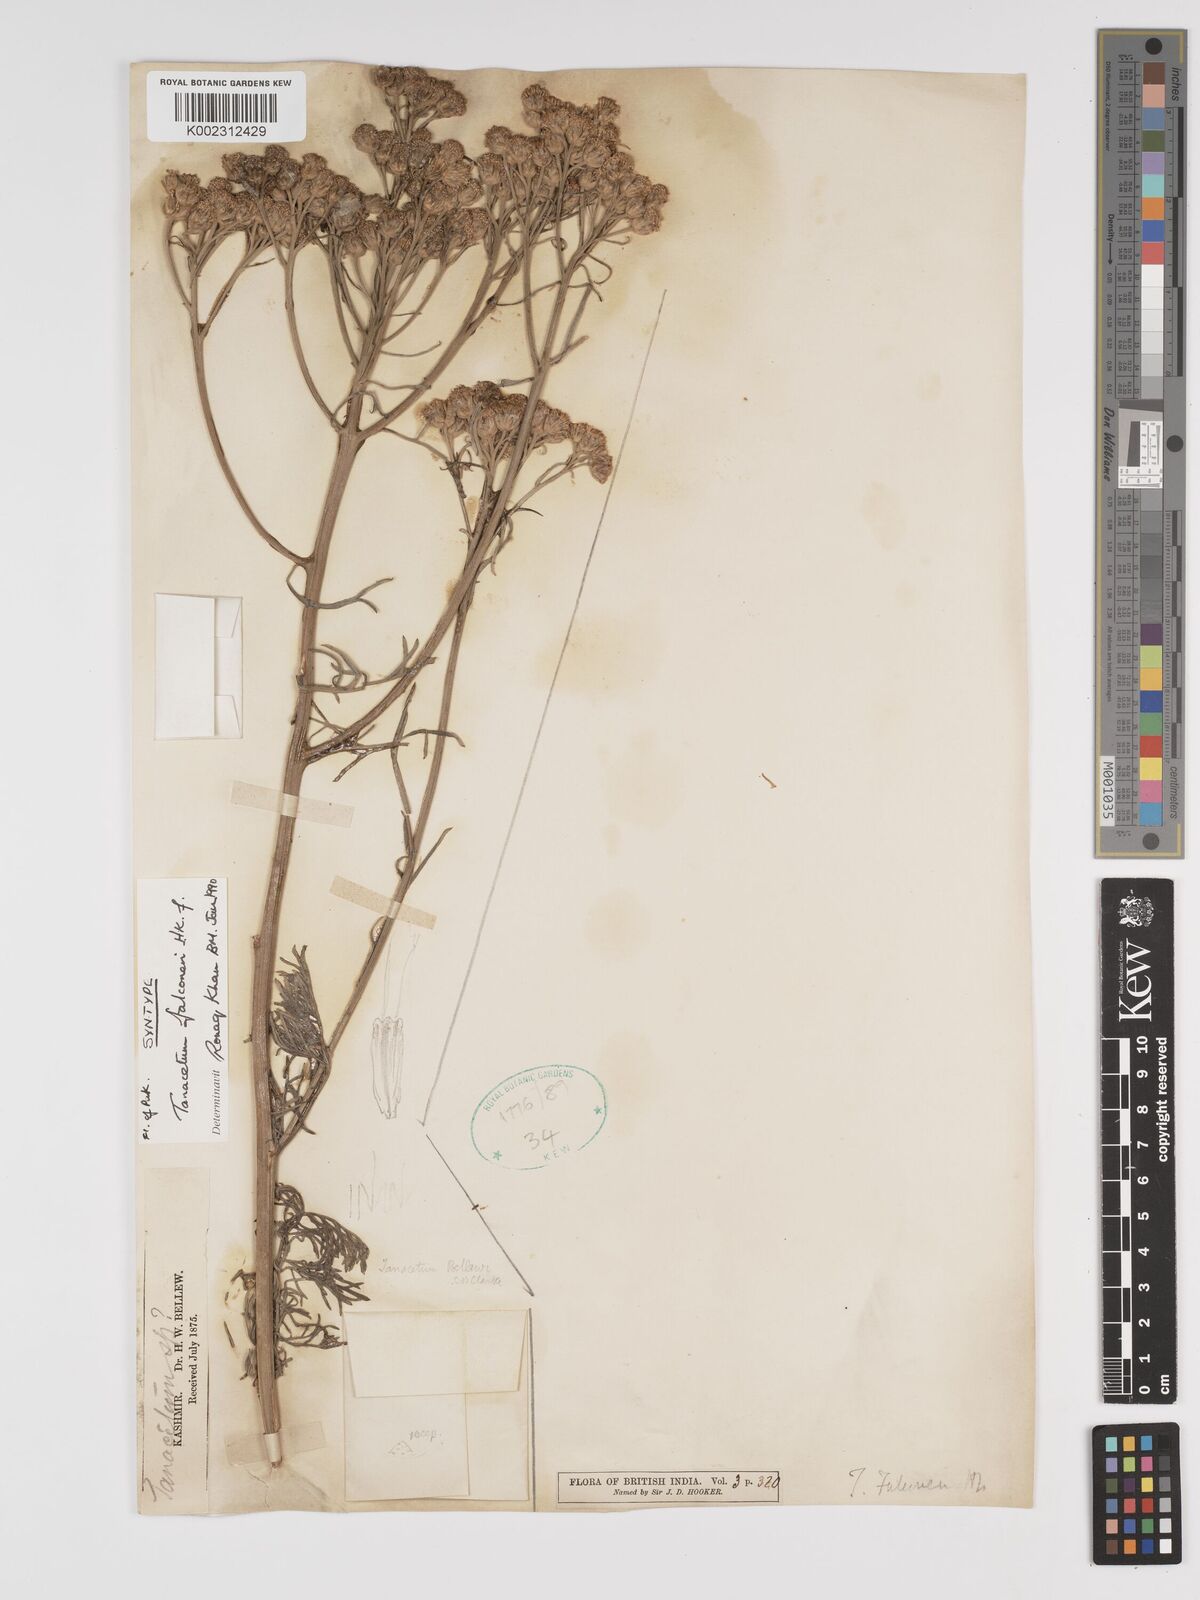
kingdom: Plantae
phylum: Tracheophyta
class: Magnoliopsida
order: Asterales
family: Asteraceae
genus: Tanacetum
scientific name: Tanacetum falconeri
